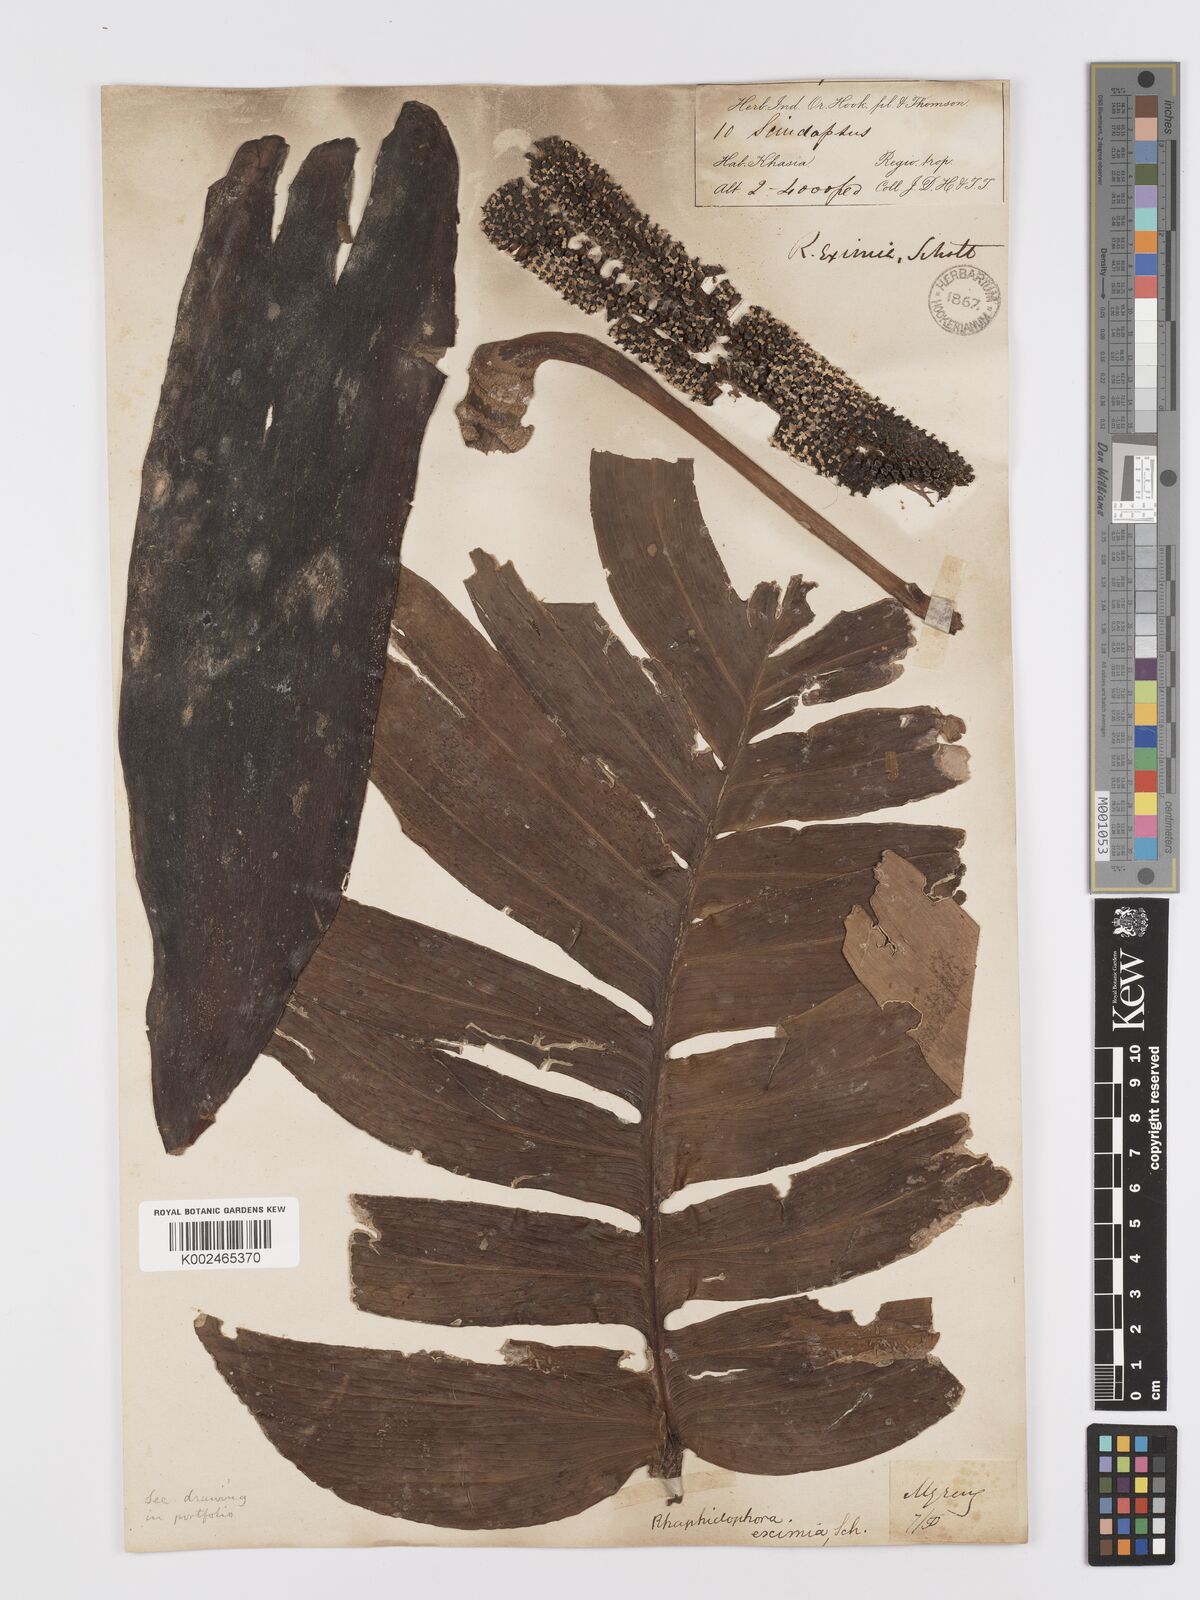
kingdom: Plantae
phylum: Tracheophyta
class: Liliopsida
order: Alismatales
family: Araceae
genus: Rhaphidophora
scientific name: Rhaphidophora decursiva
